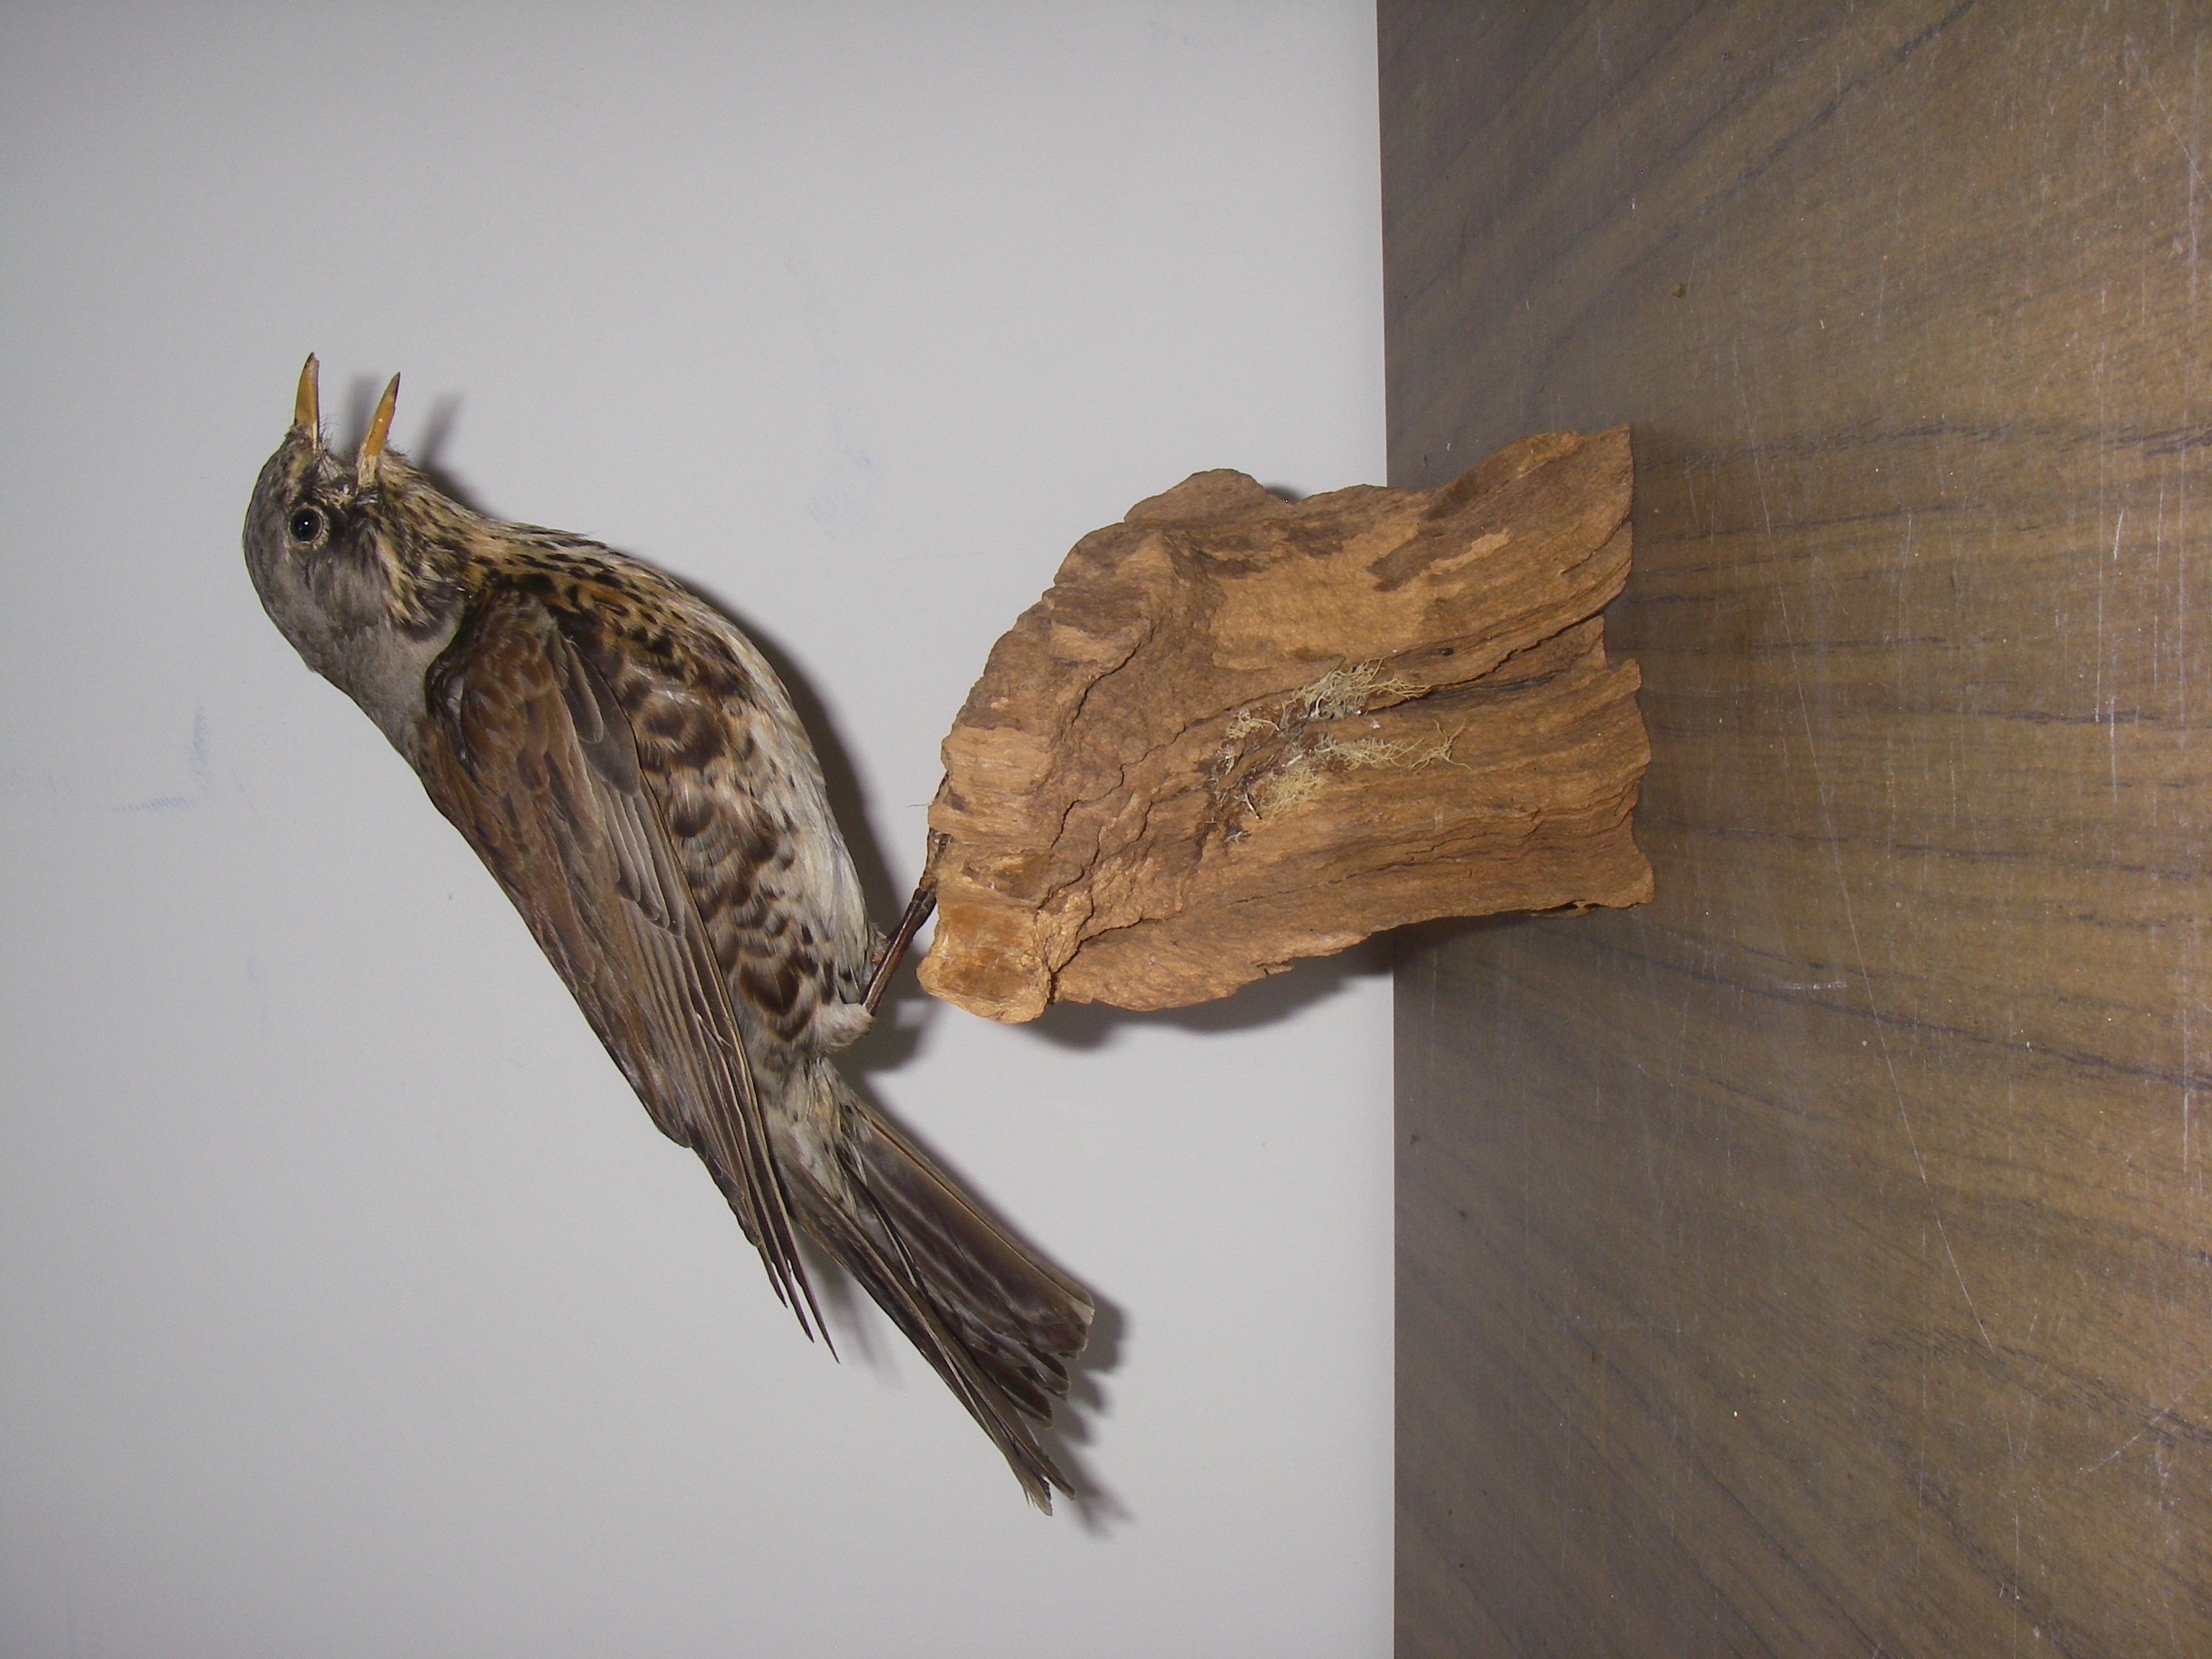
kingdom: Animalia
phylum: Chordata
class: Aves
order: Passeriformes
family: Turdidae
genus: Turdus
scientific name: Turdus pilaris
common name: Fieldfare
